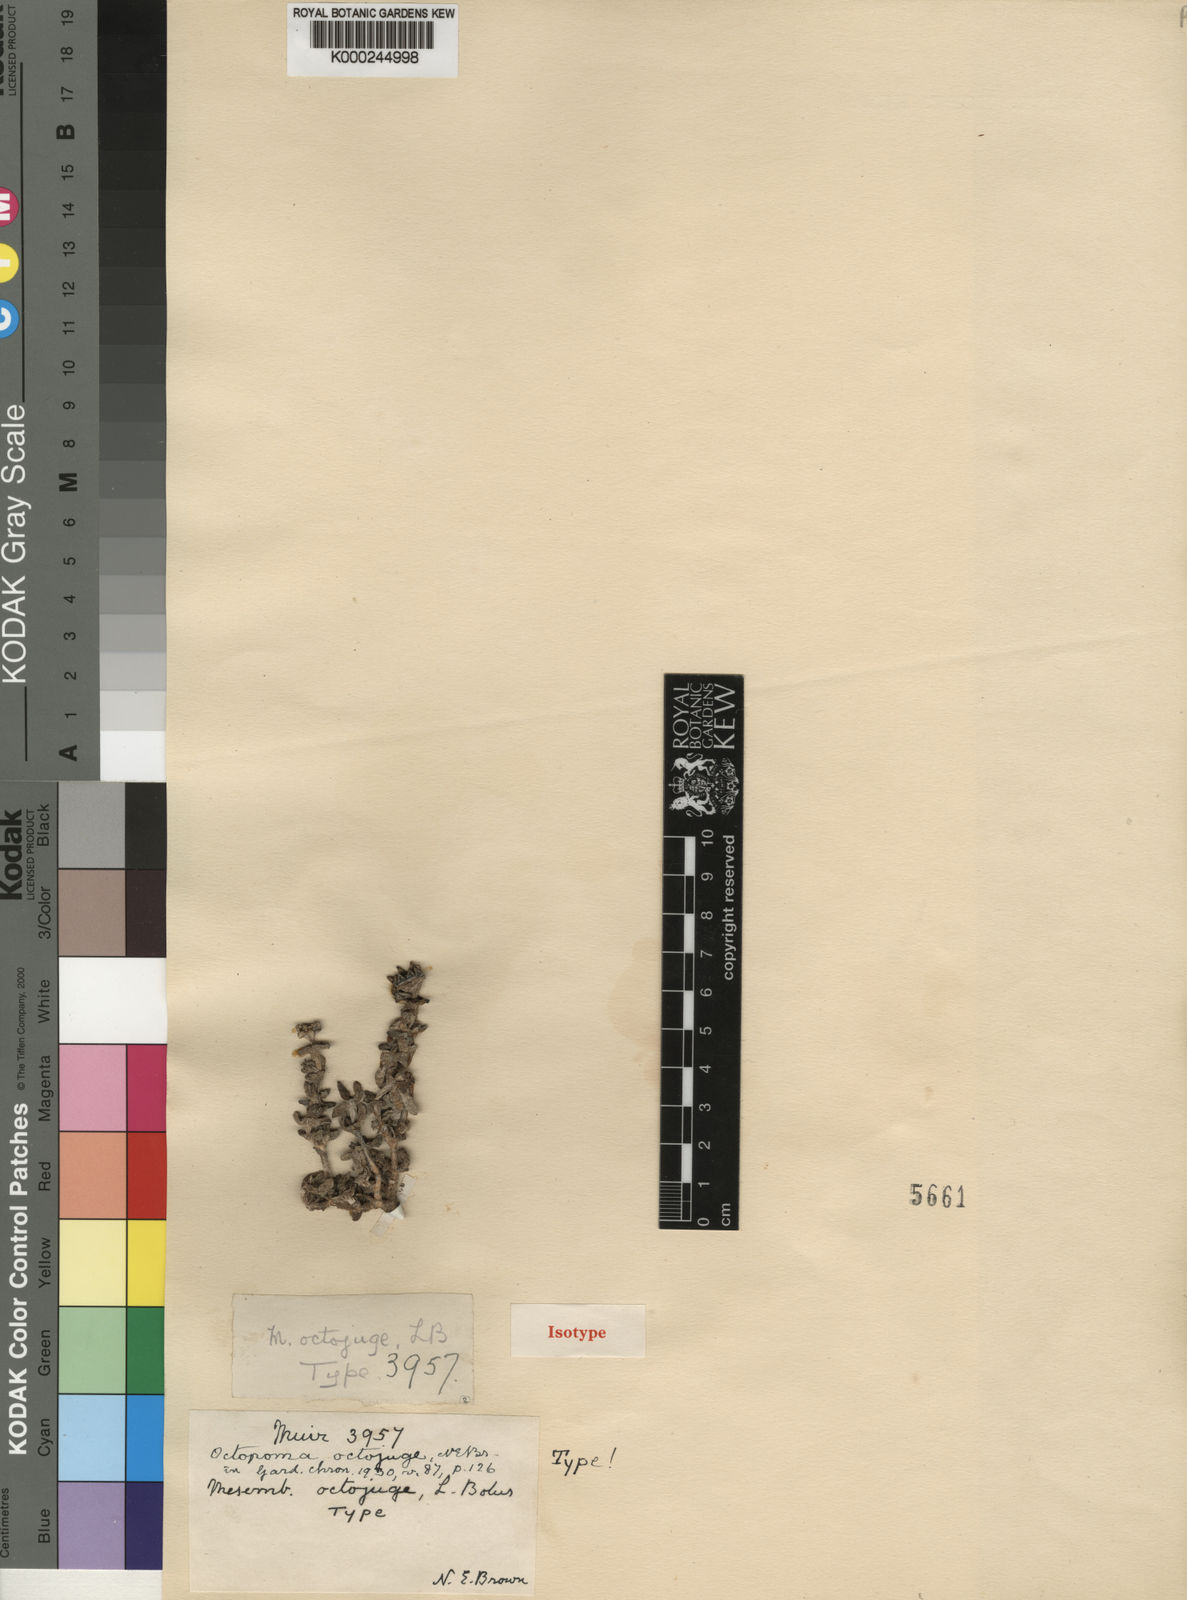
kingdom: Plantae
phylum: Tracheophyta
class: Magnoliopsida
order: Caryophyllales
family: Aizoaceae
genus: Octopoma
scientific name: Octopoma octojuge
